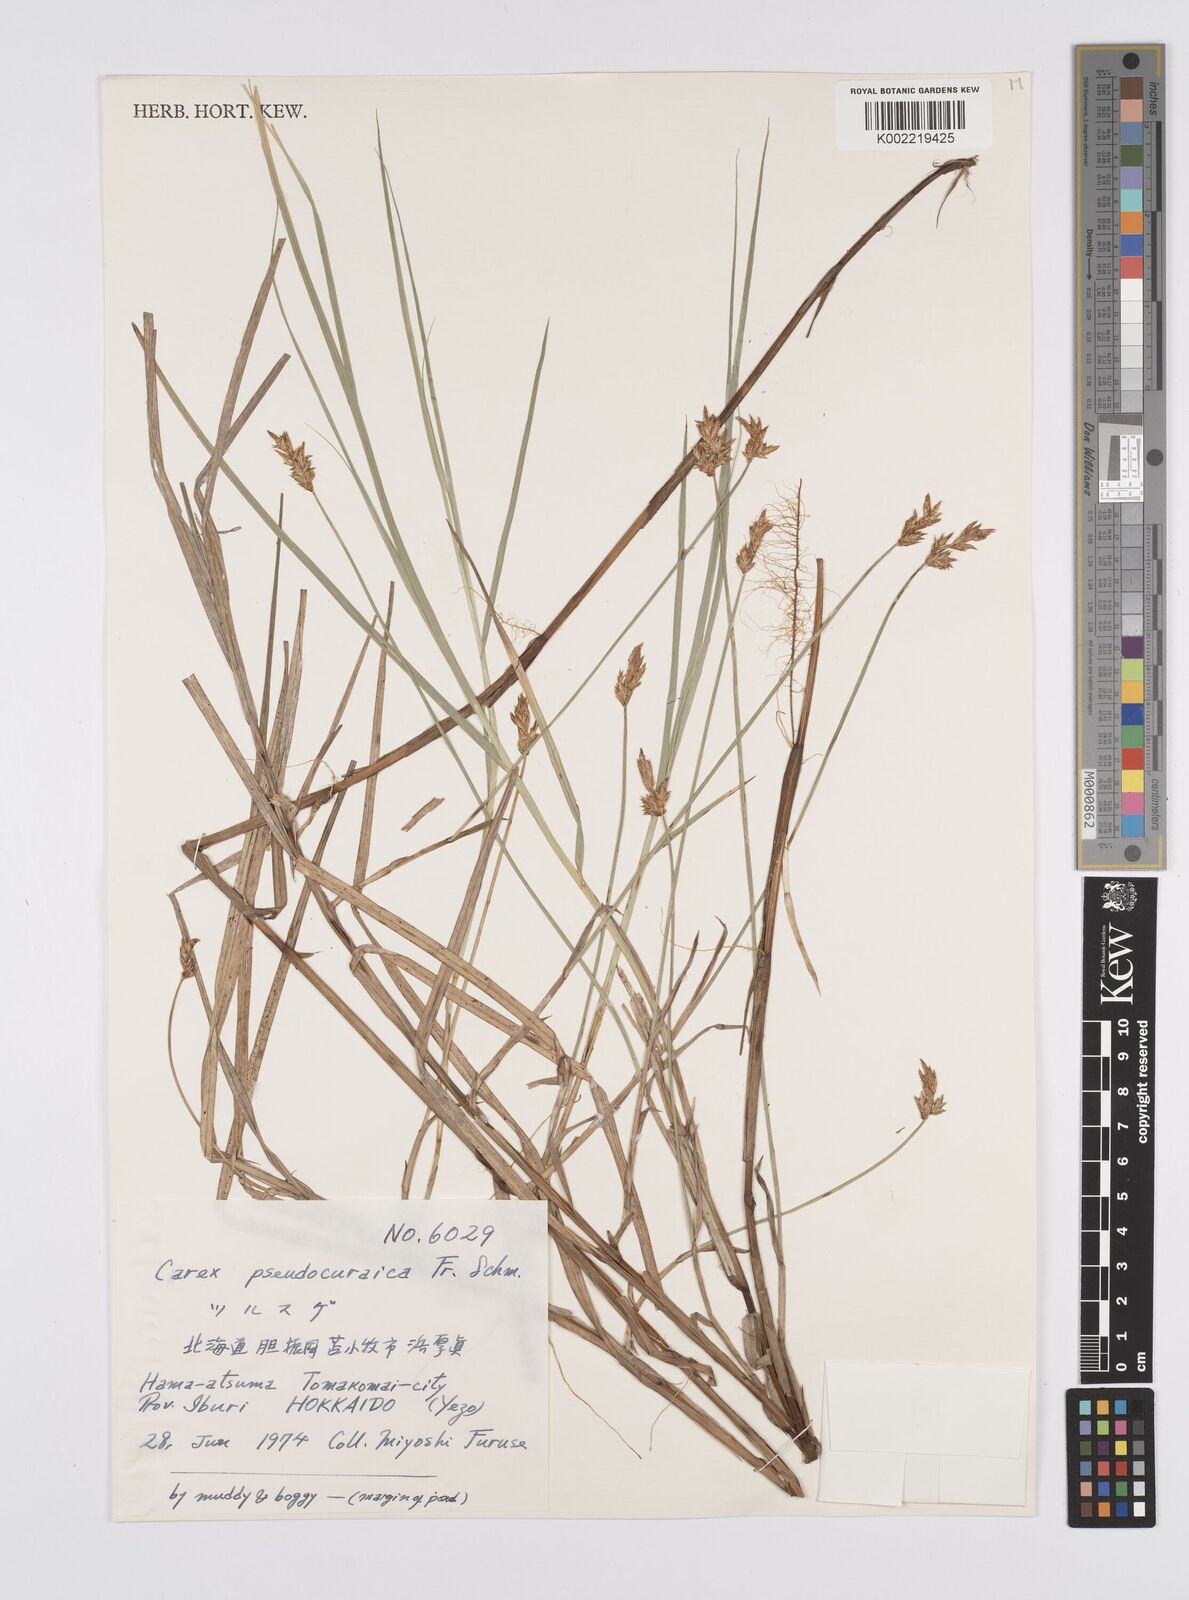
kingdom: Plantae
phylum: Tracheophyta
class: Liliopsida
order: Poales
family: Cyperaceae
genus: Carex
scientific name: Carex pseudocuraica
